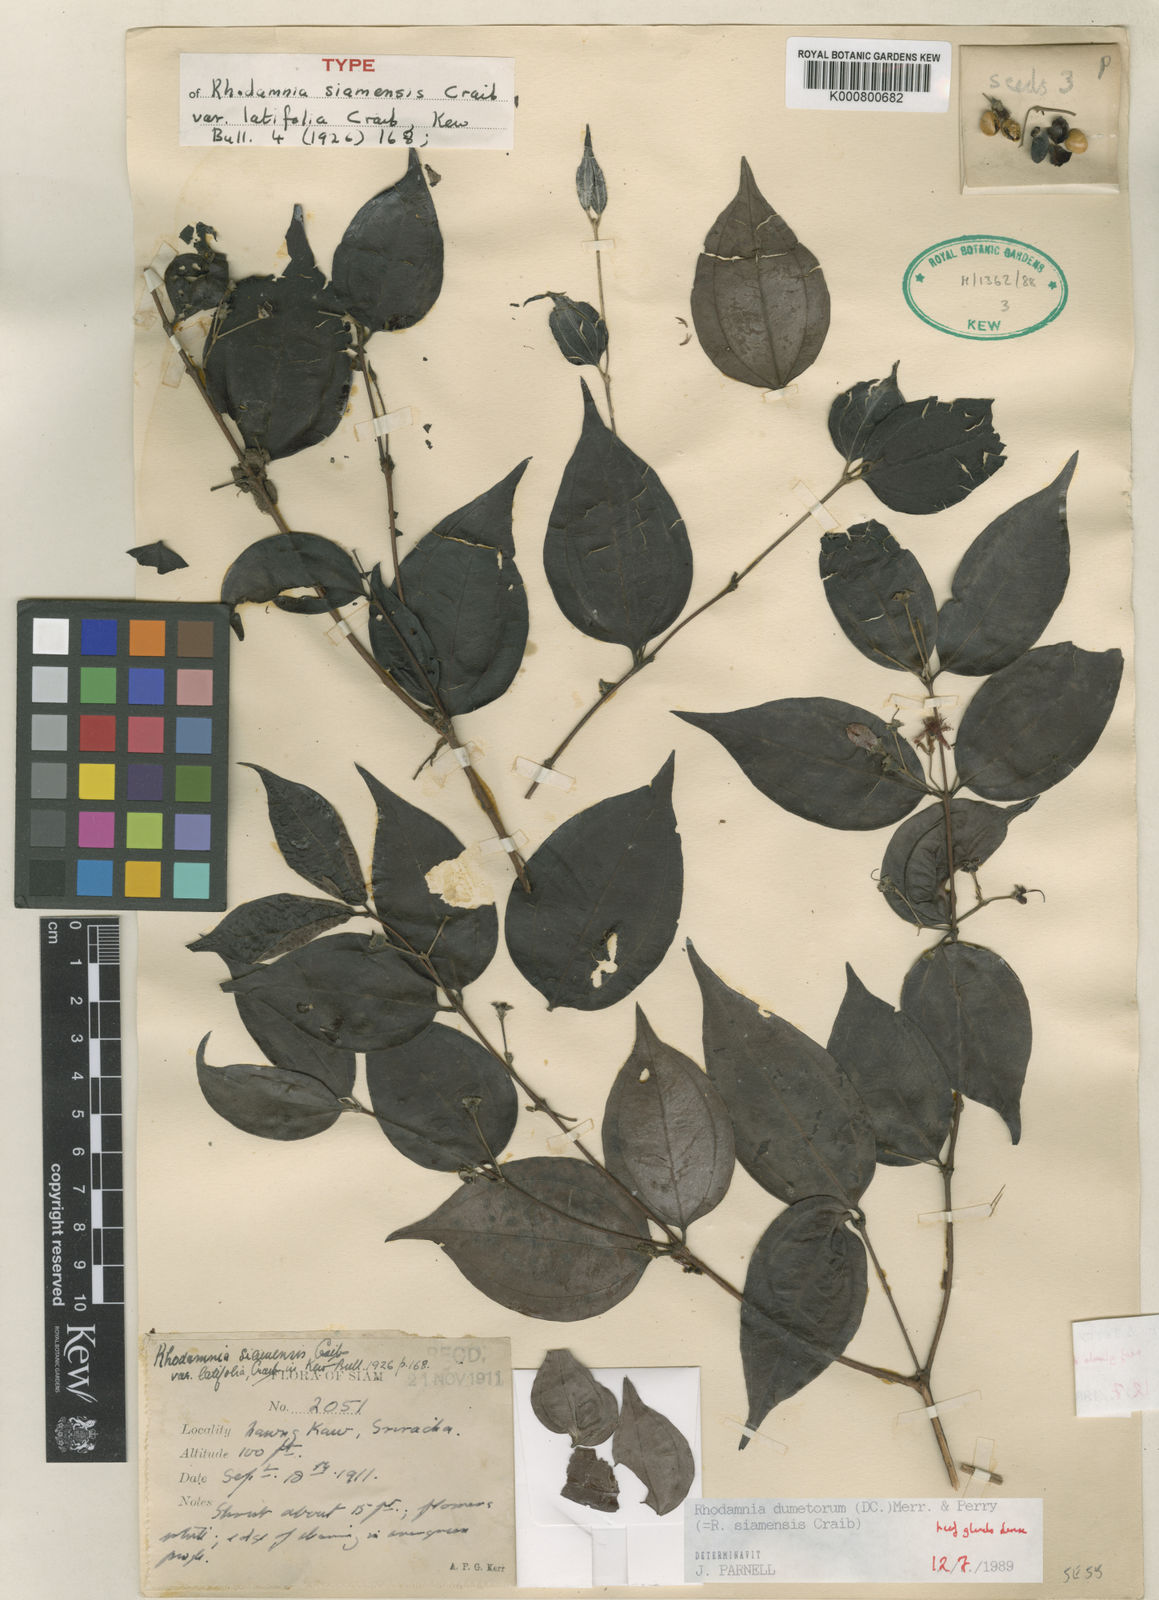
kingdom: Plantae
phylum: Tracheophyta
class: Magnoliopsida
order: Myrtales
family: Myrtaceae
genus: Rhodamnia
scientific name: Rhodamnia dumetorum
